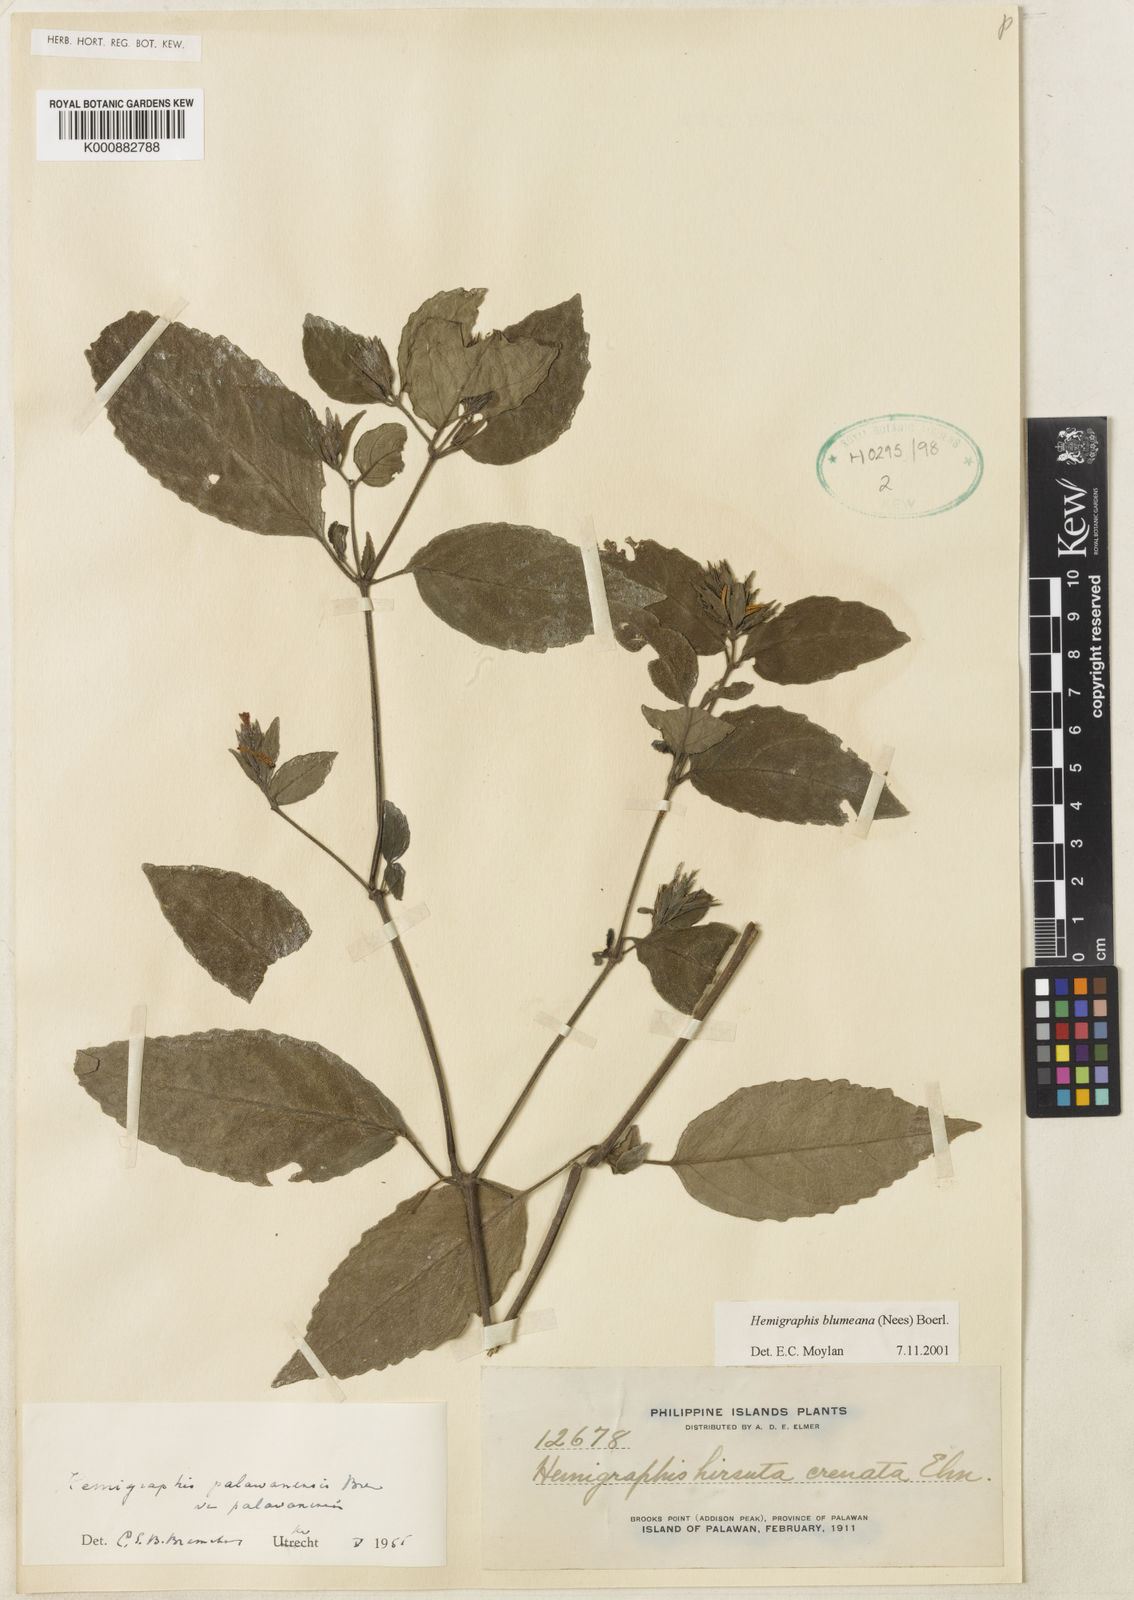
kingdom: Plantae
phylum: Tracheophyta
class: Magnoliopsida
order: Lamiales
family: Acanthaceae
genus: Strobilanthes
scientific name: Strobilanthes blumeana
